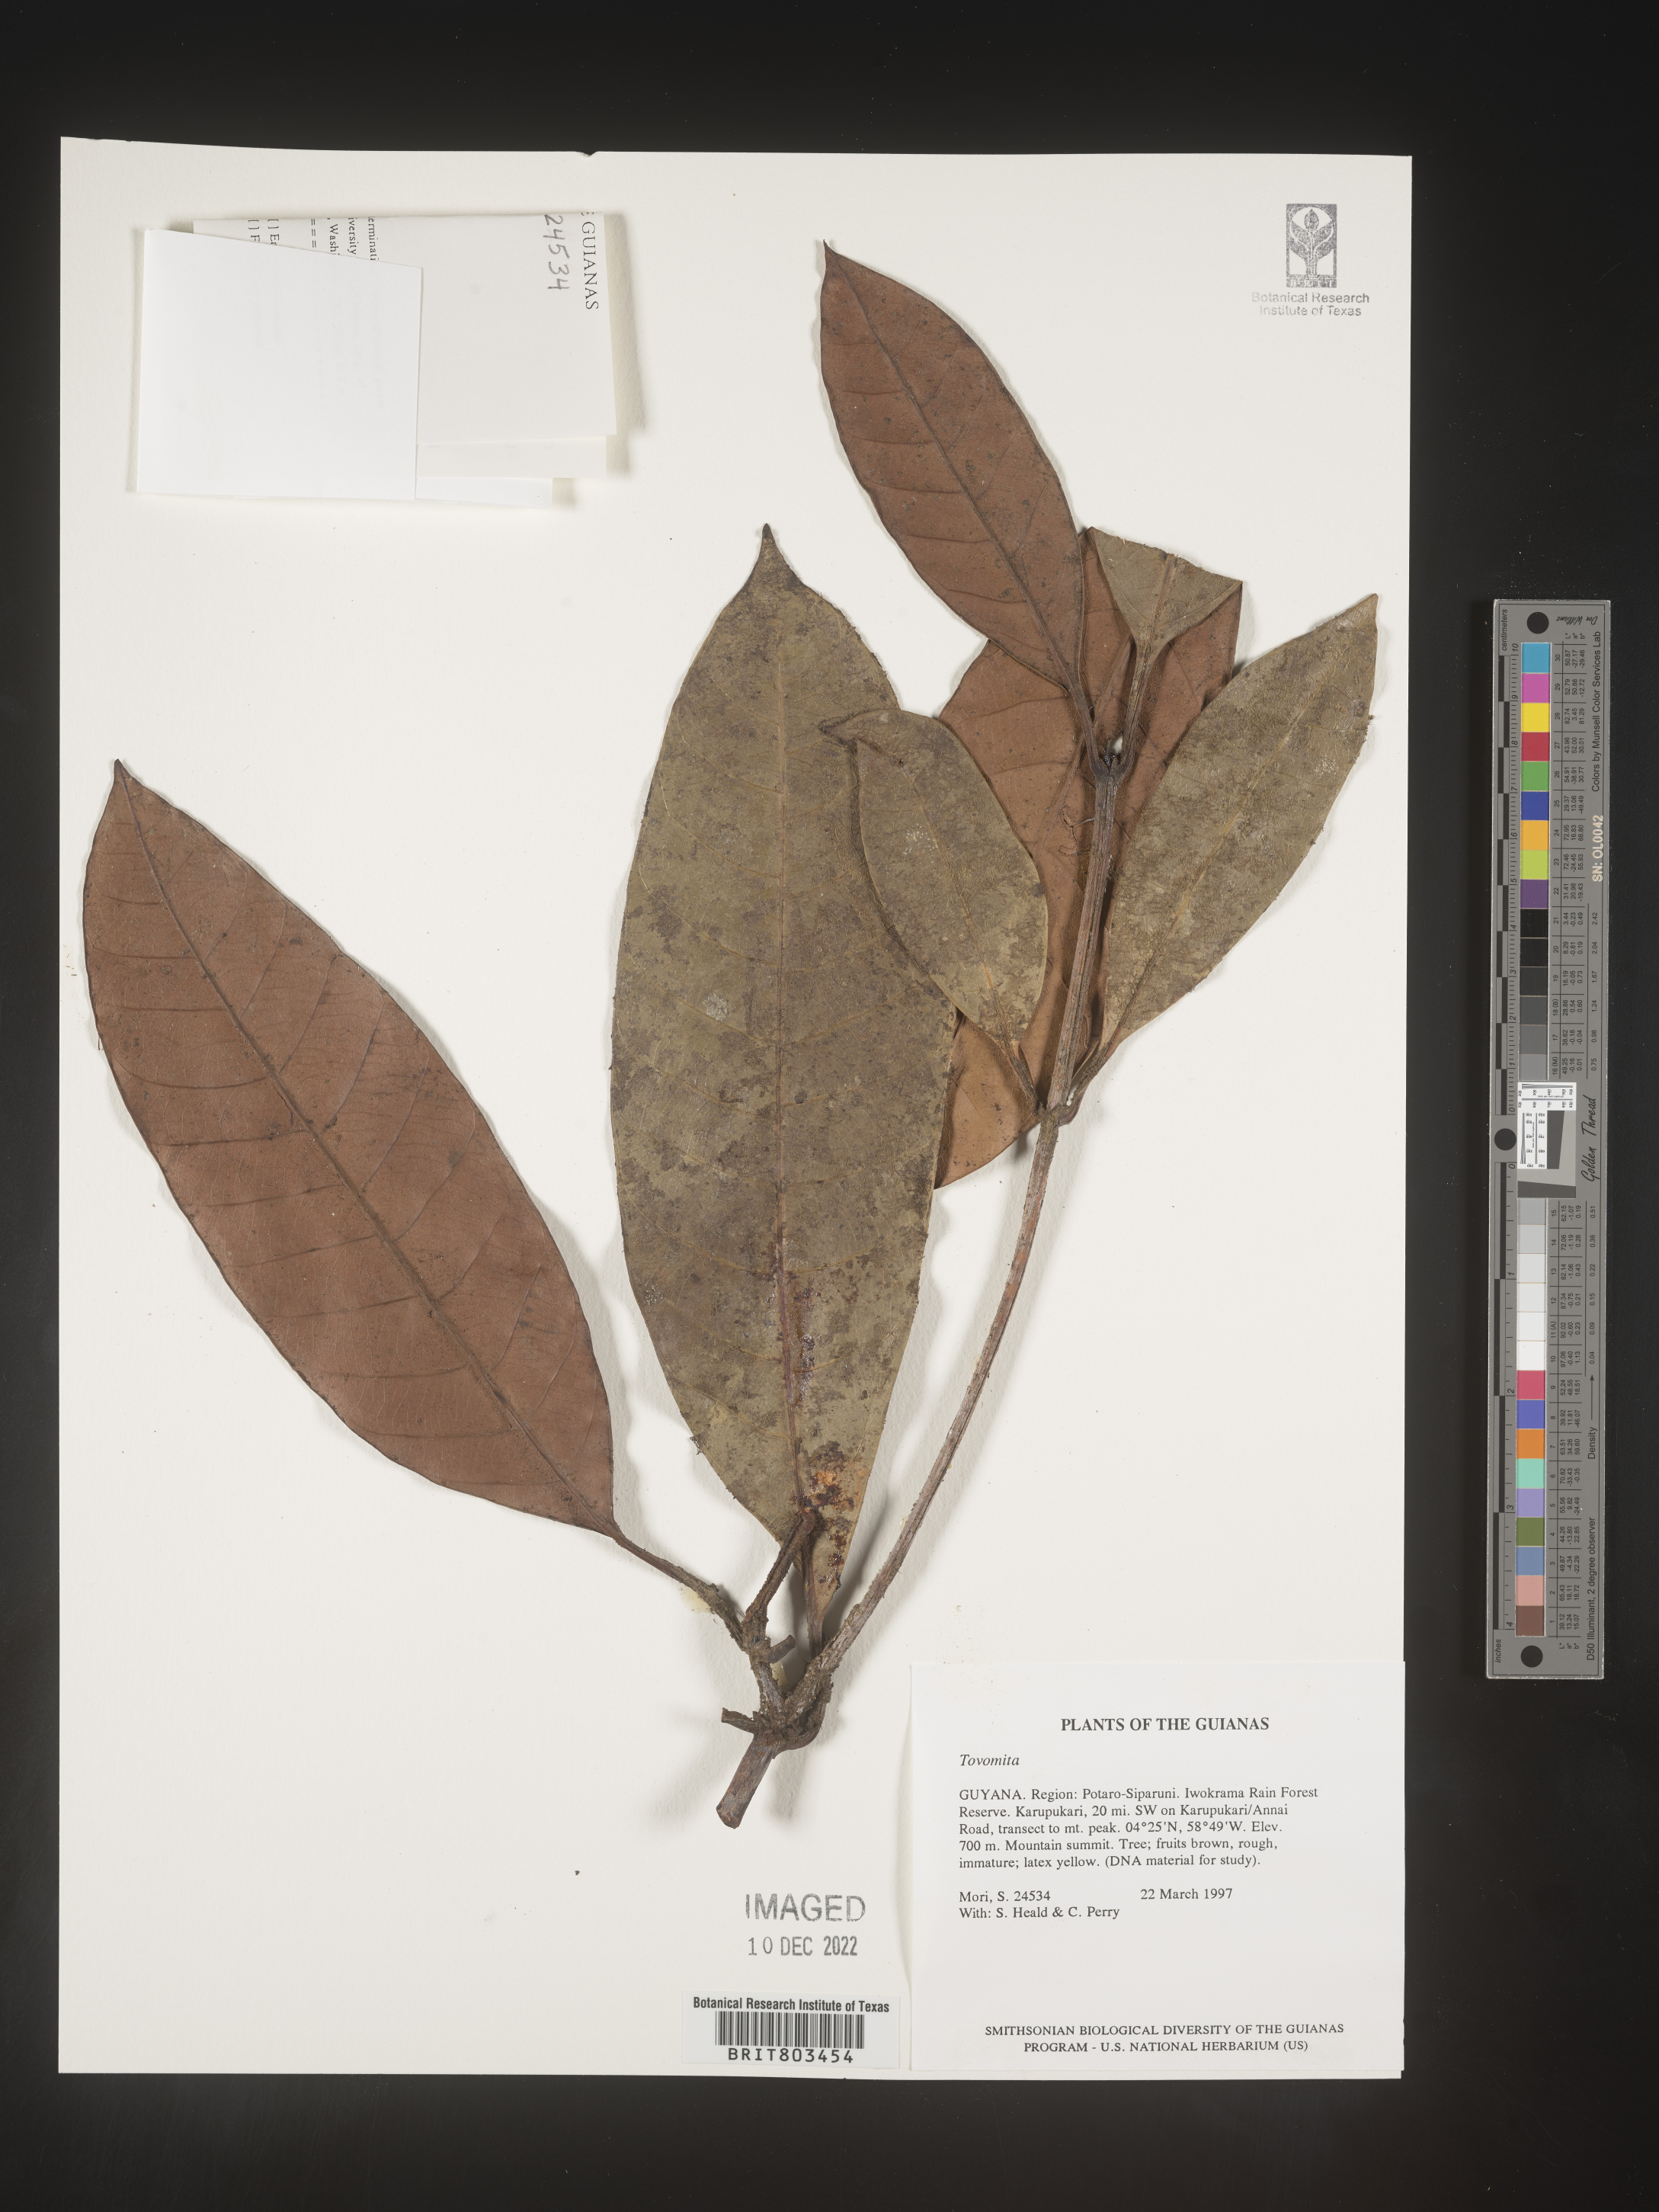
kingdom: Plantae
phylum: Tracheophyta
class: Magnoliopsida
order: Malpighiales
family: Clusiaceae
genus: Tovomita
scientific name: Tovomita
